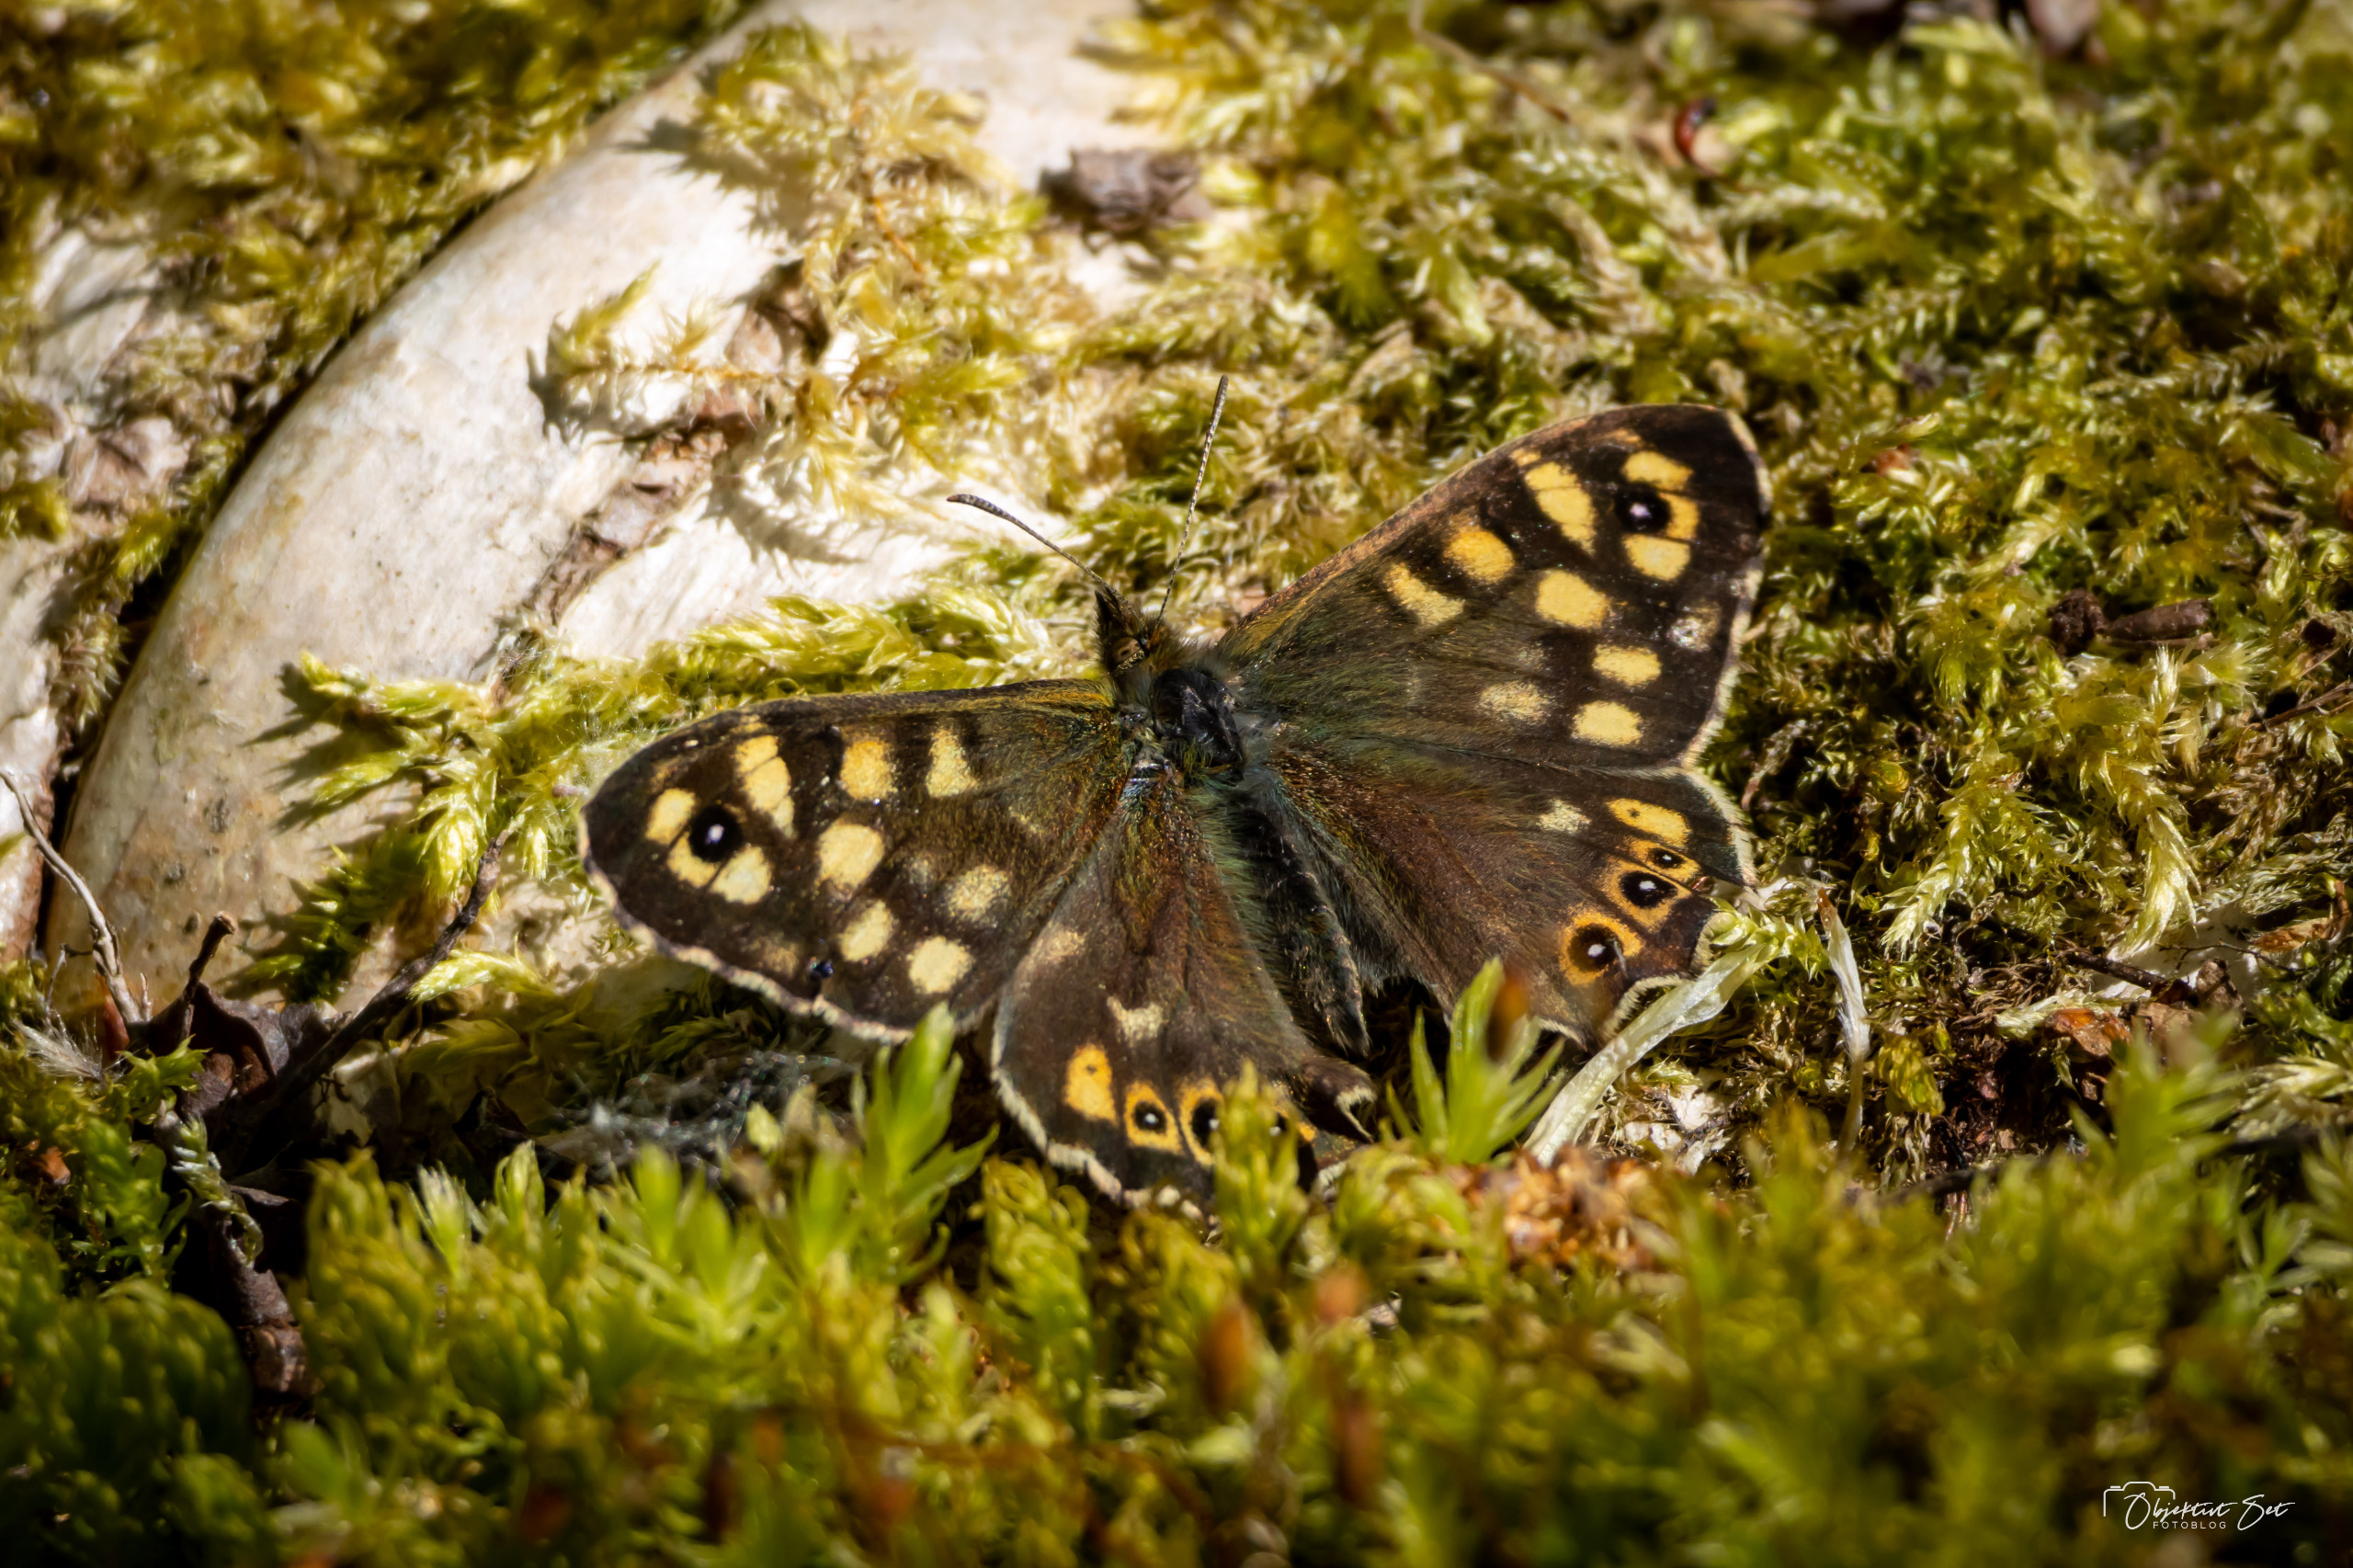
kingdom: Animalia
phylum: Arthropoda
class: Insecta
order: Lepidoptera
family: Nymphalidae
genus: Pararge
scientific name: Pararge aegeria
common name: Skovrandøje
